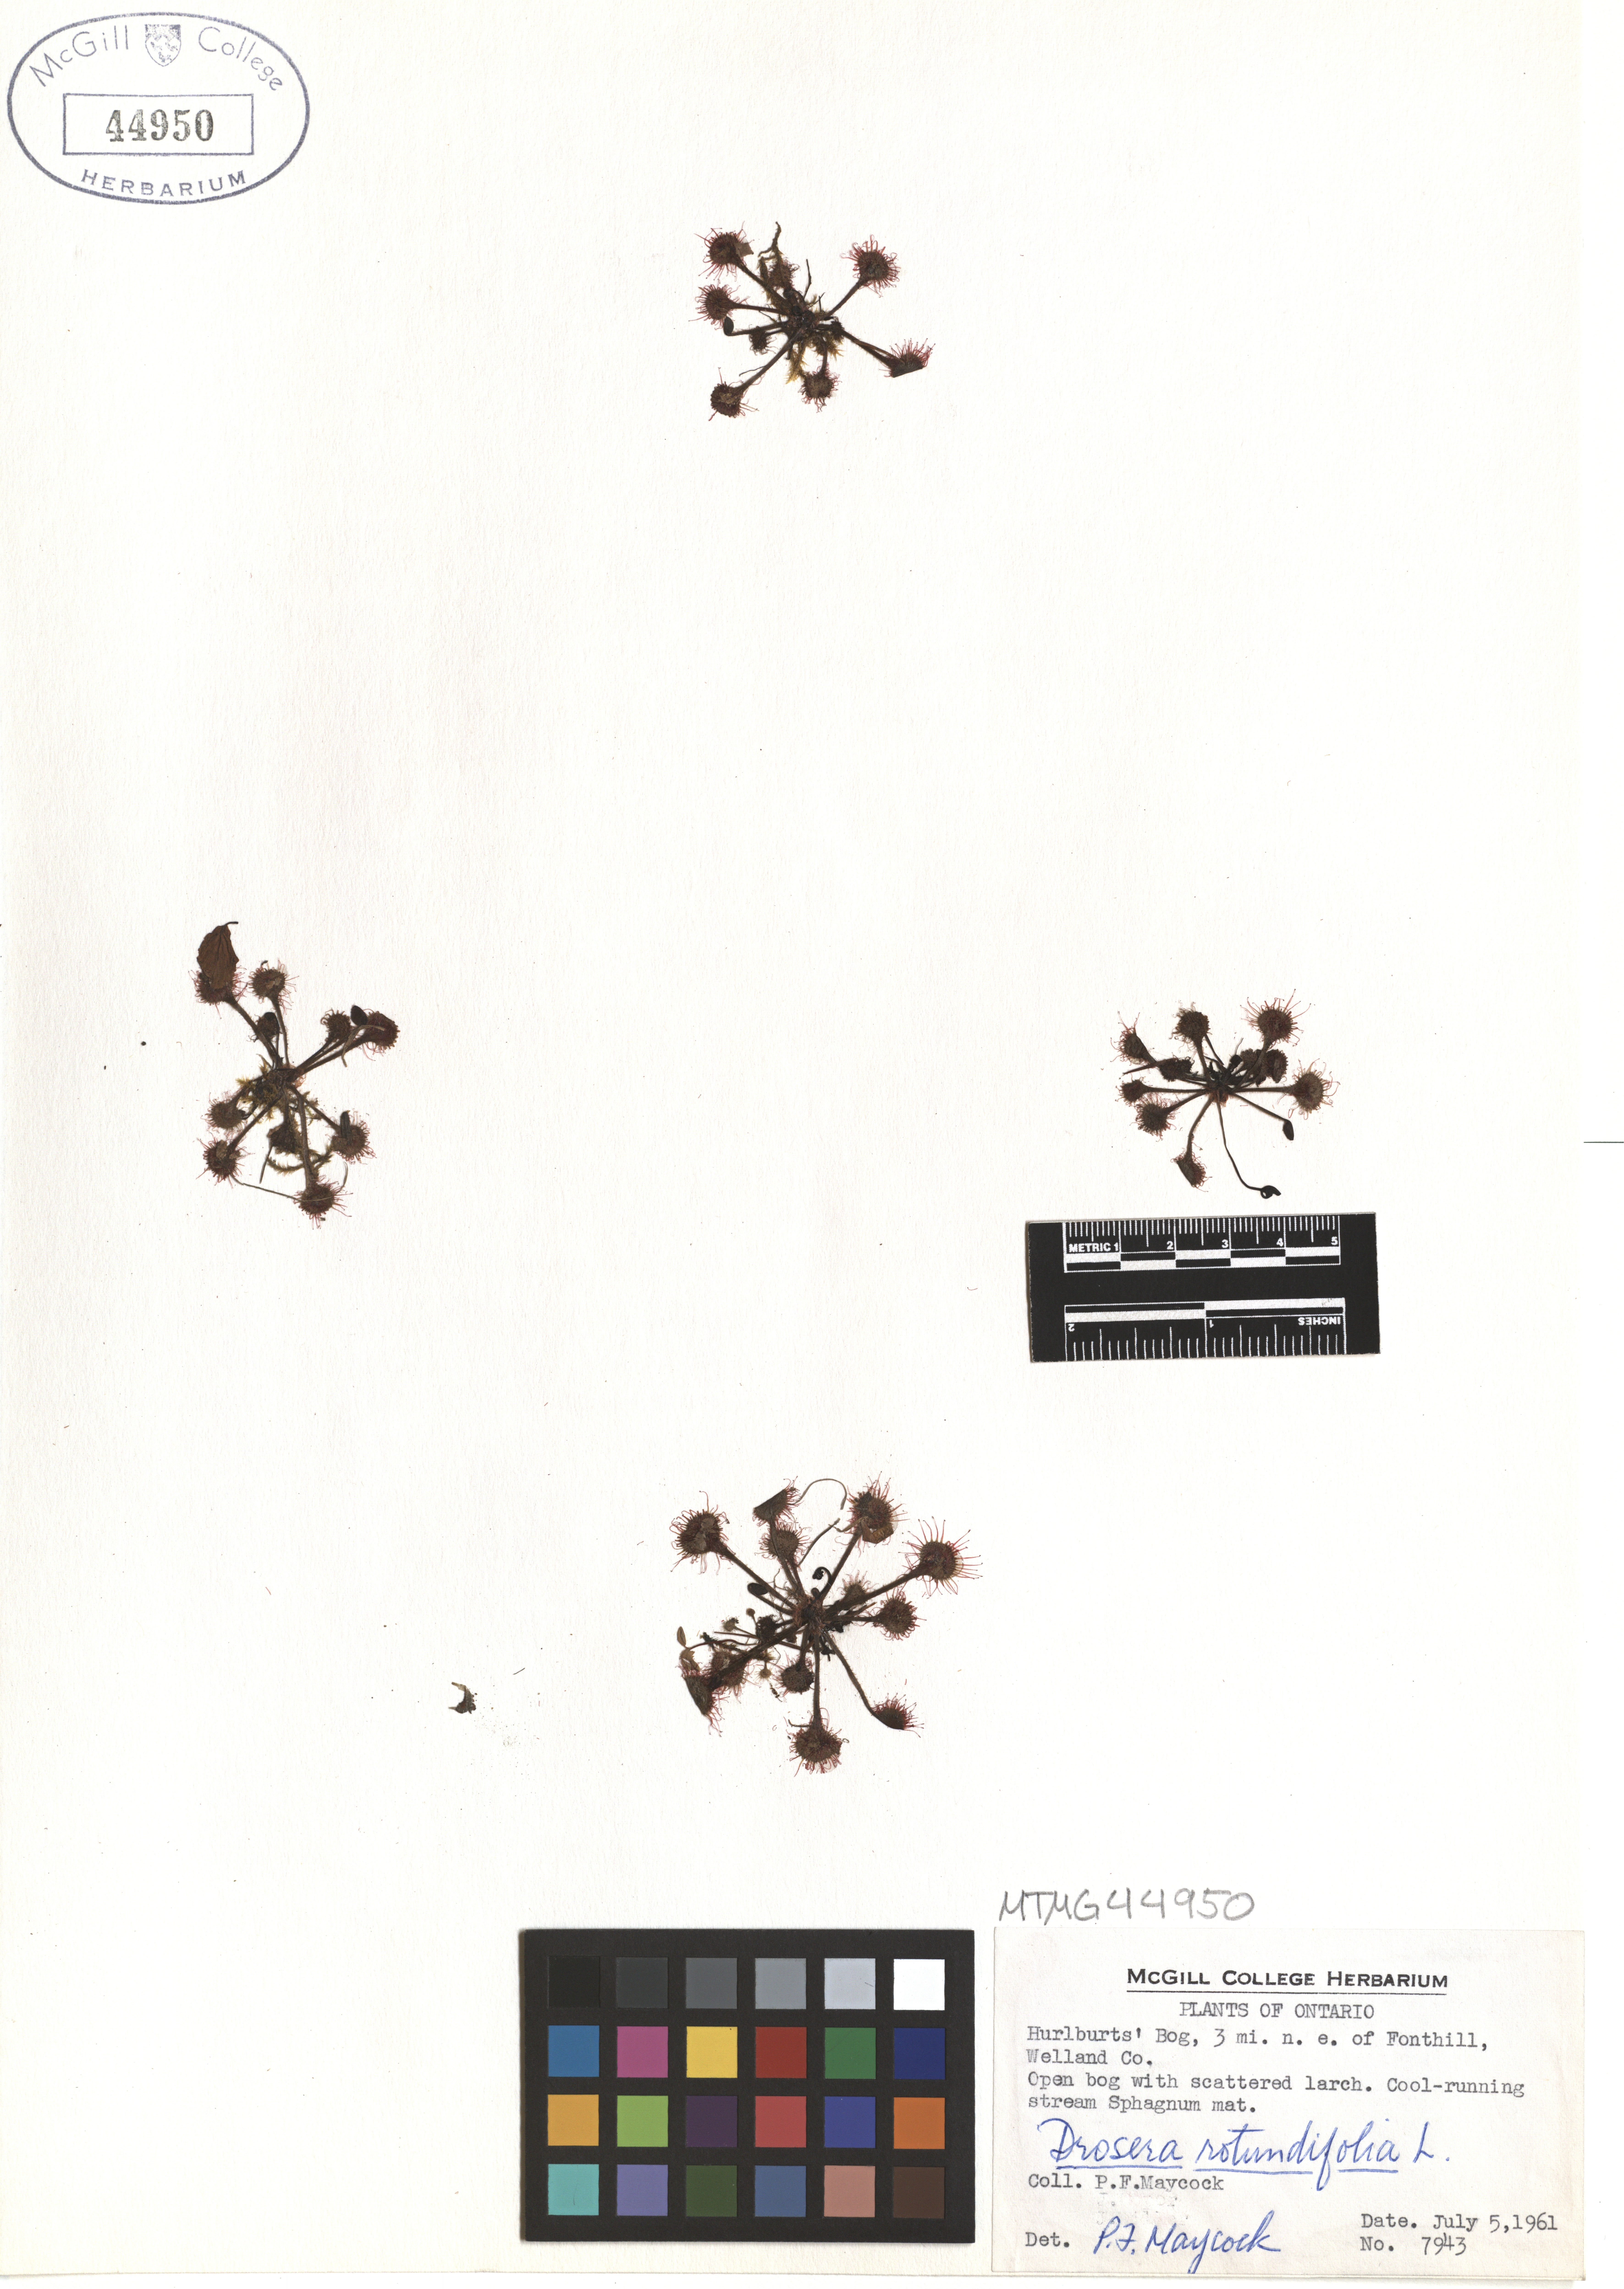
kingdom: Plantae
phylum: Tracheophyta
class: Magnoliopsida
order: Caryophyllales
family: Droseraceae
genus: Drosera
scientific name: Drosera rotundifolia
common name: Round-leaved sundew
